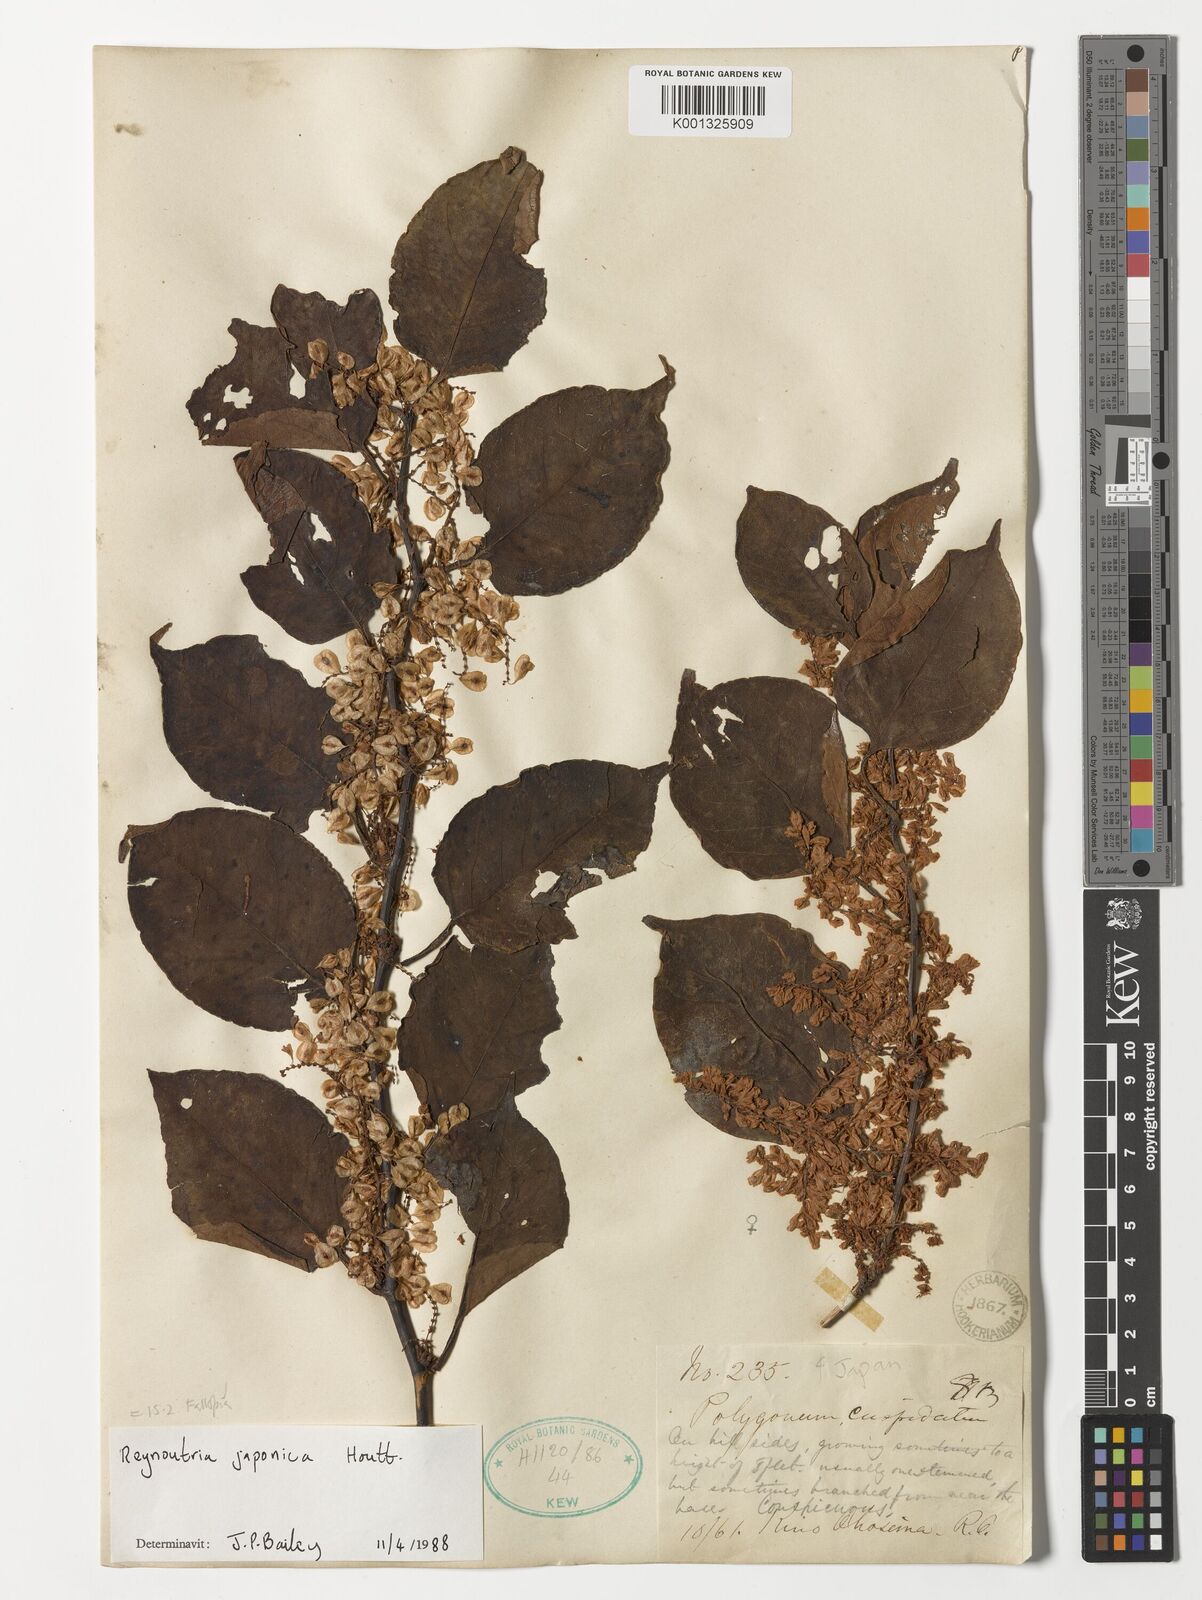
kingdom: Plantae
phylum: Tracheophyta
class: Magnoliopsida
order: Caryophyllales
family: Polygonaceae
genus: Reynoutria
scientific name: Reynoutria japonica
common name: Japanese knotweed
